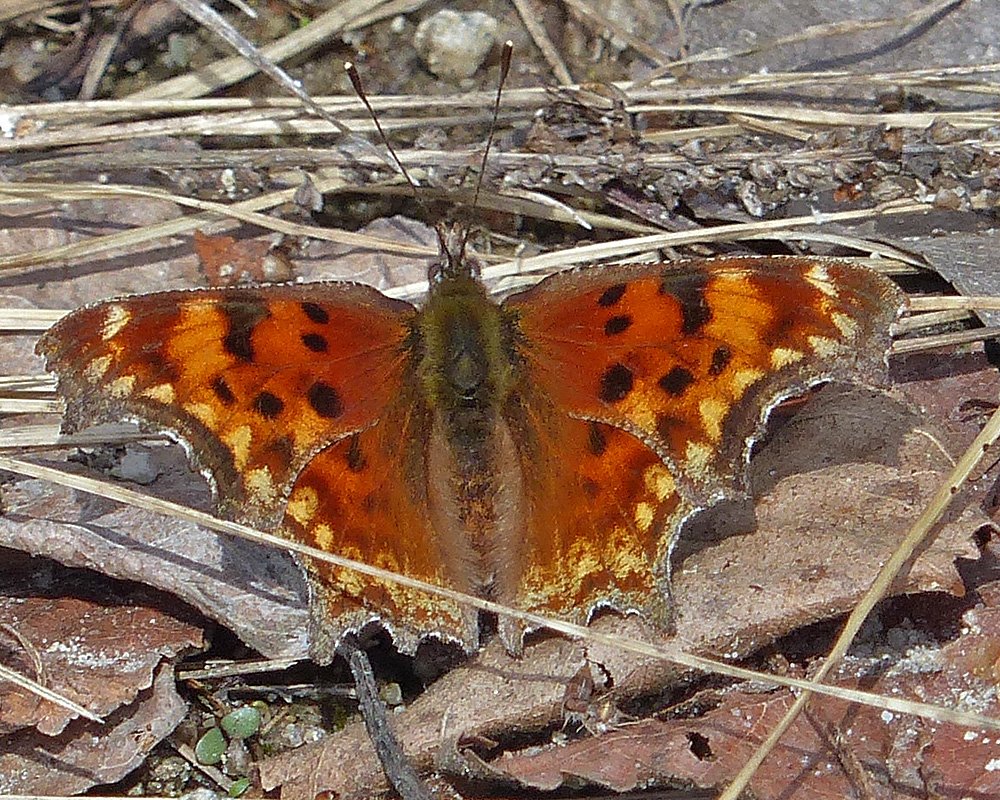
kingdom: Animalia
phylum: Arthropoda
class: Insecta
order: Lepidoptera
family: Nymphalidae
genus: Polygonia
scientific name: Polygonia gracilis
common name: Hoary Comma
